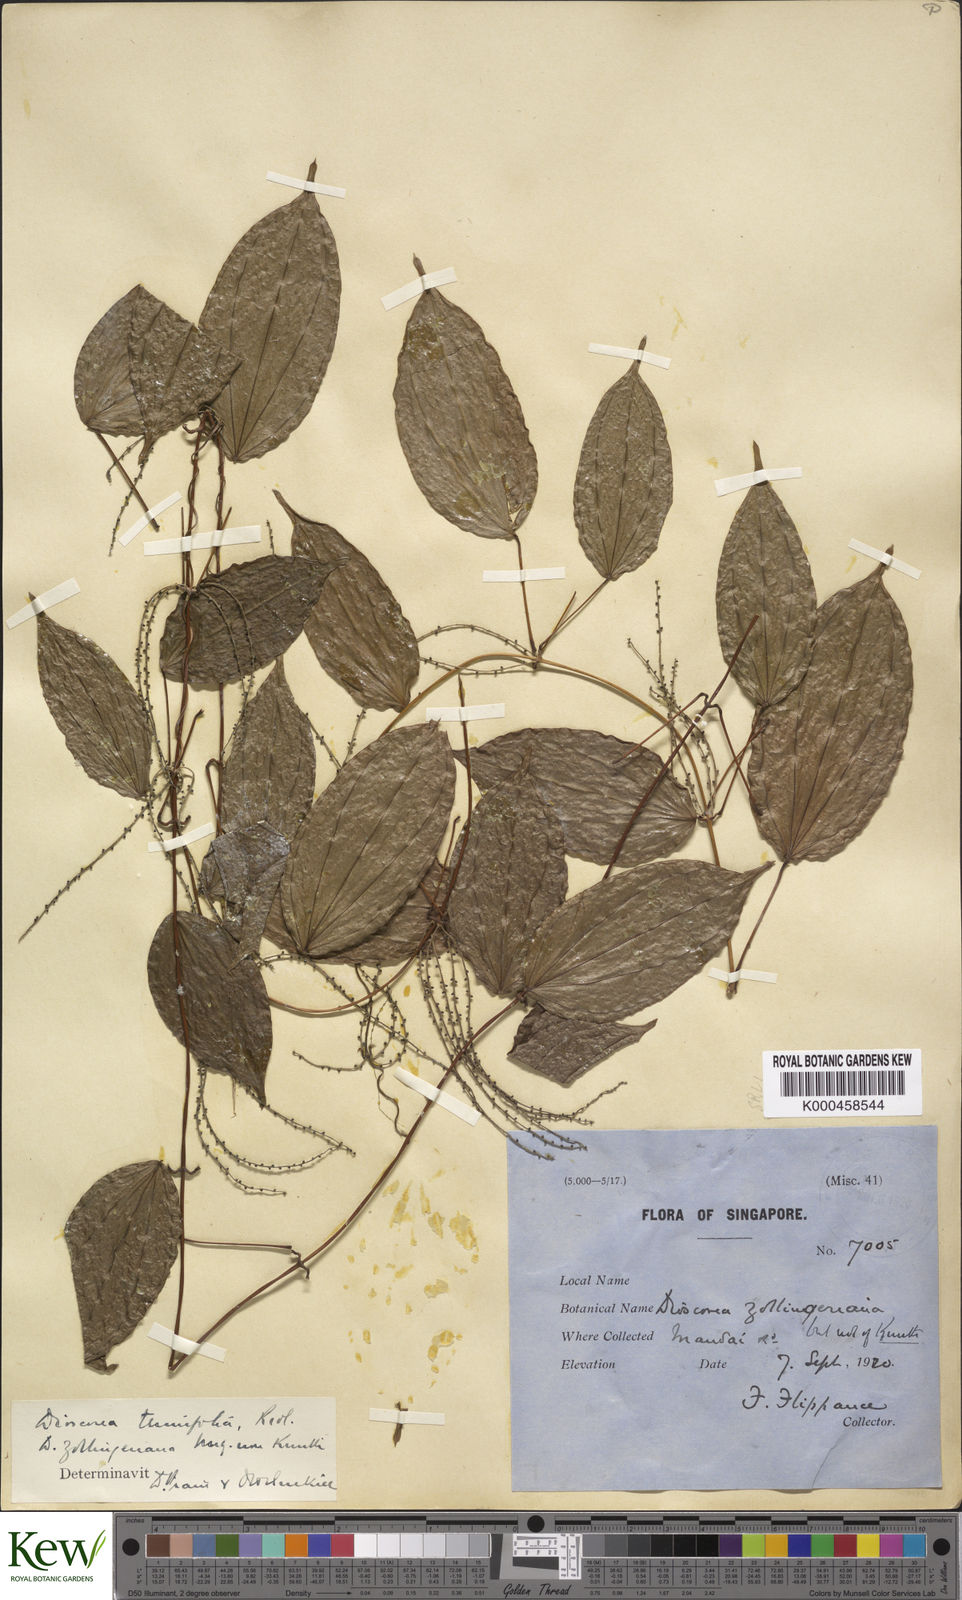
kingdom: Plantae
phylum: Tracheophyta
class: Liliopsida
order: Dioscoreales
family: Dioscoreaceae
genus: Dioscorea
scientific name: Dioscorea tenuifolia
